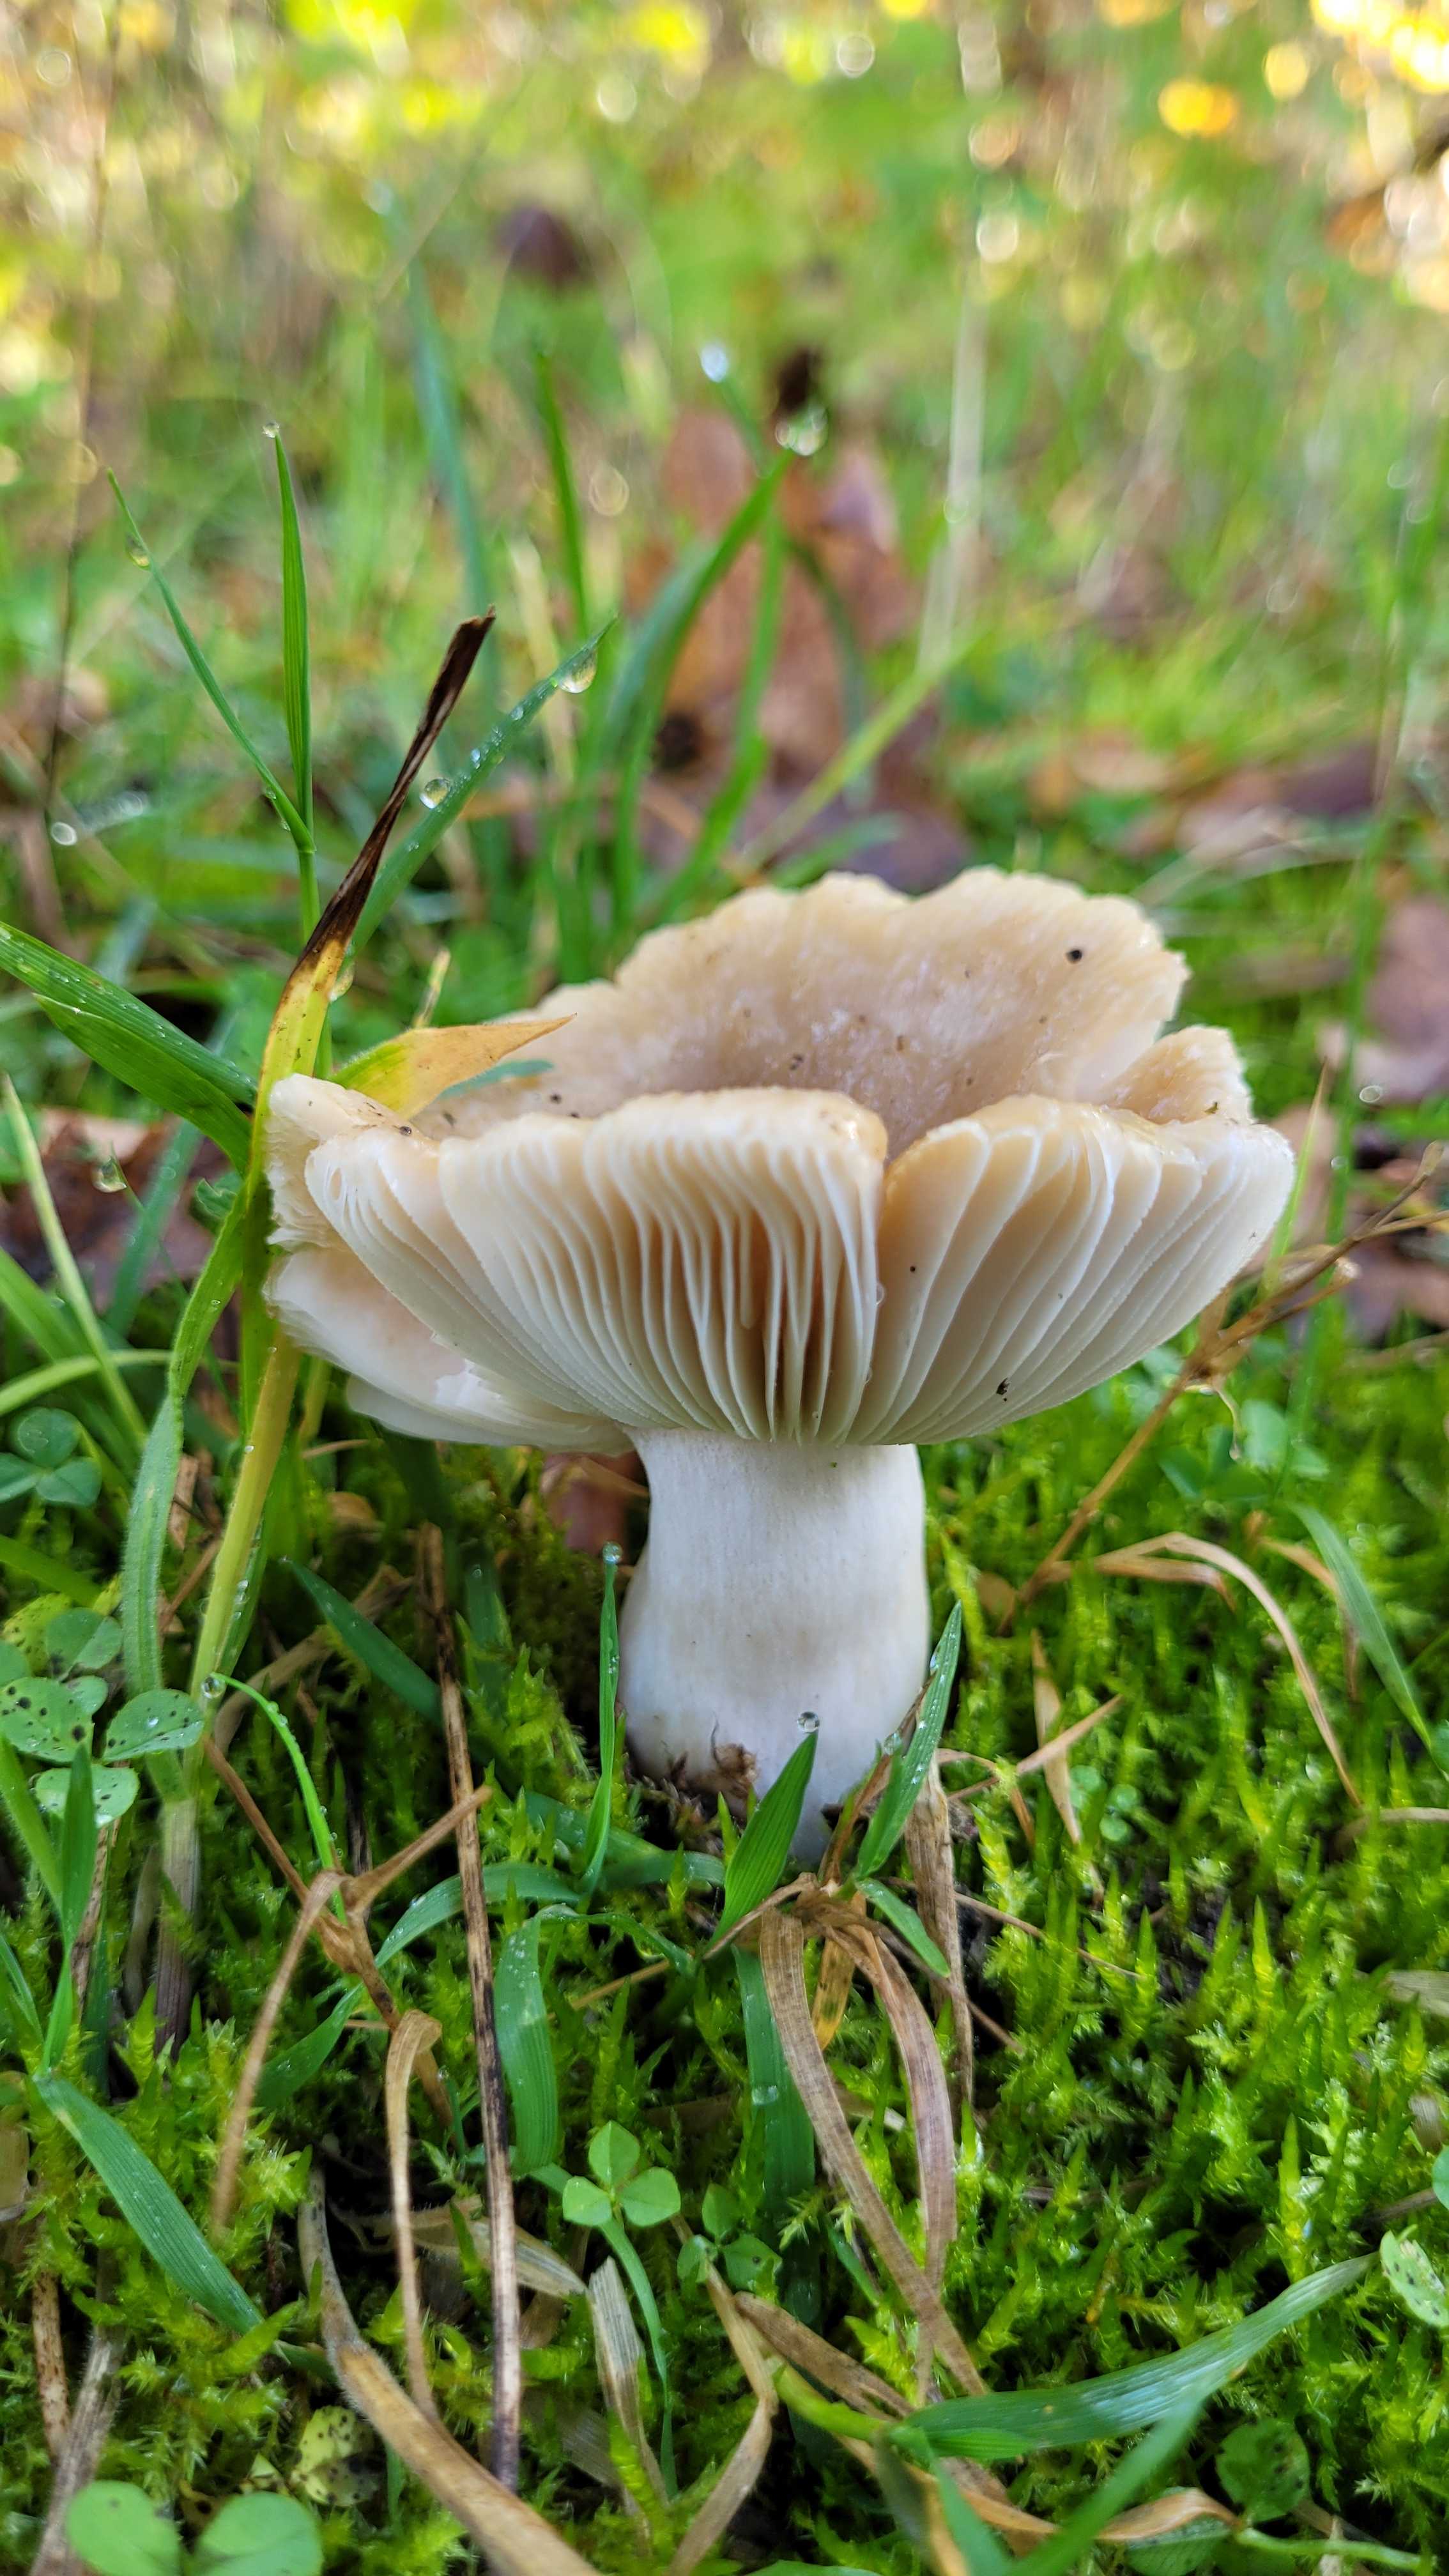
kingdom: Fungi
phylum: Basidiomycota
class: Agaricomycetes
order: Russulales
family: Russulaceae
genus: Russula
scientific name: Russula
